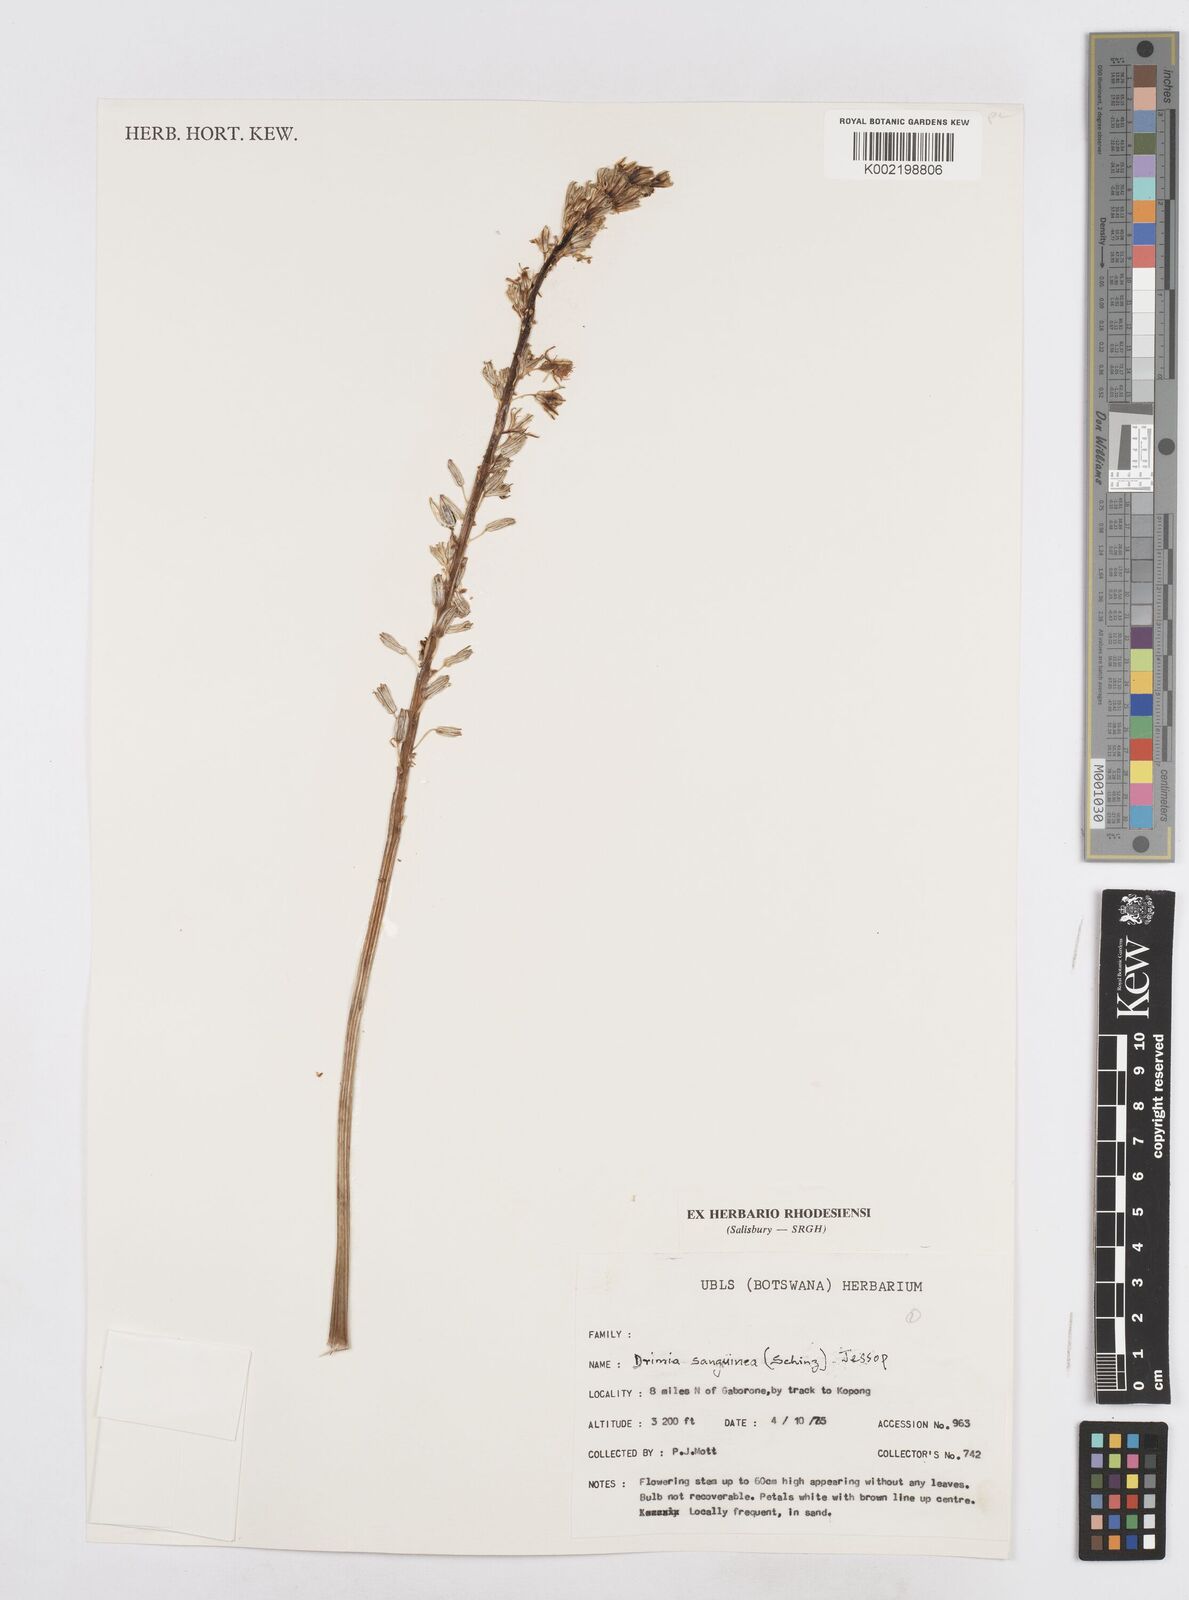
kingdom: Plantae
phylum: Tracheophyta
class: Liliopsida
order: Asparagales
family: Asparagaceae
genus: Drimia
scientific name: Drimia sanguinea
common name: Transvaal slangkop
